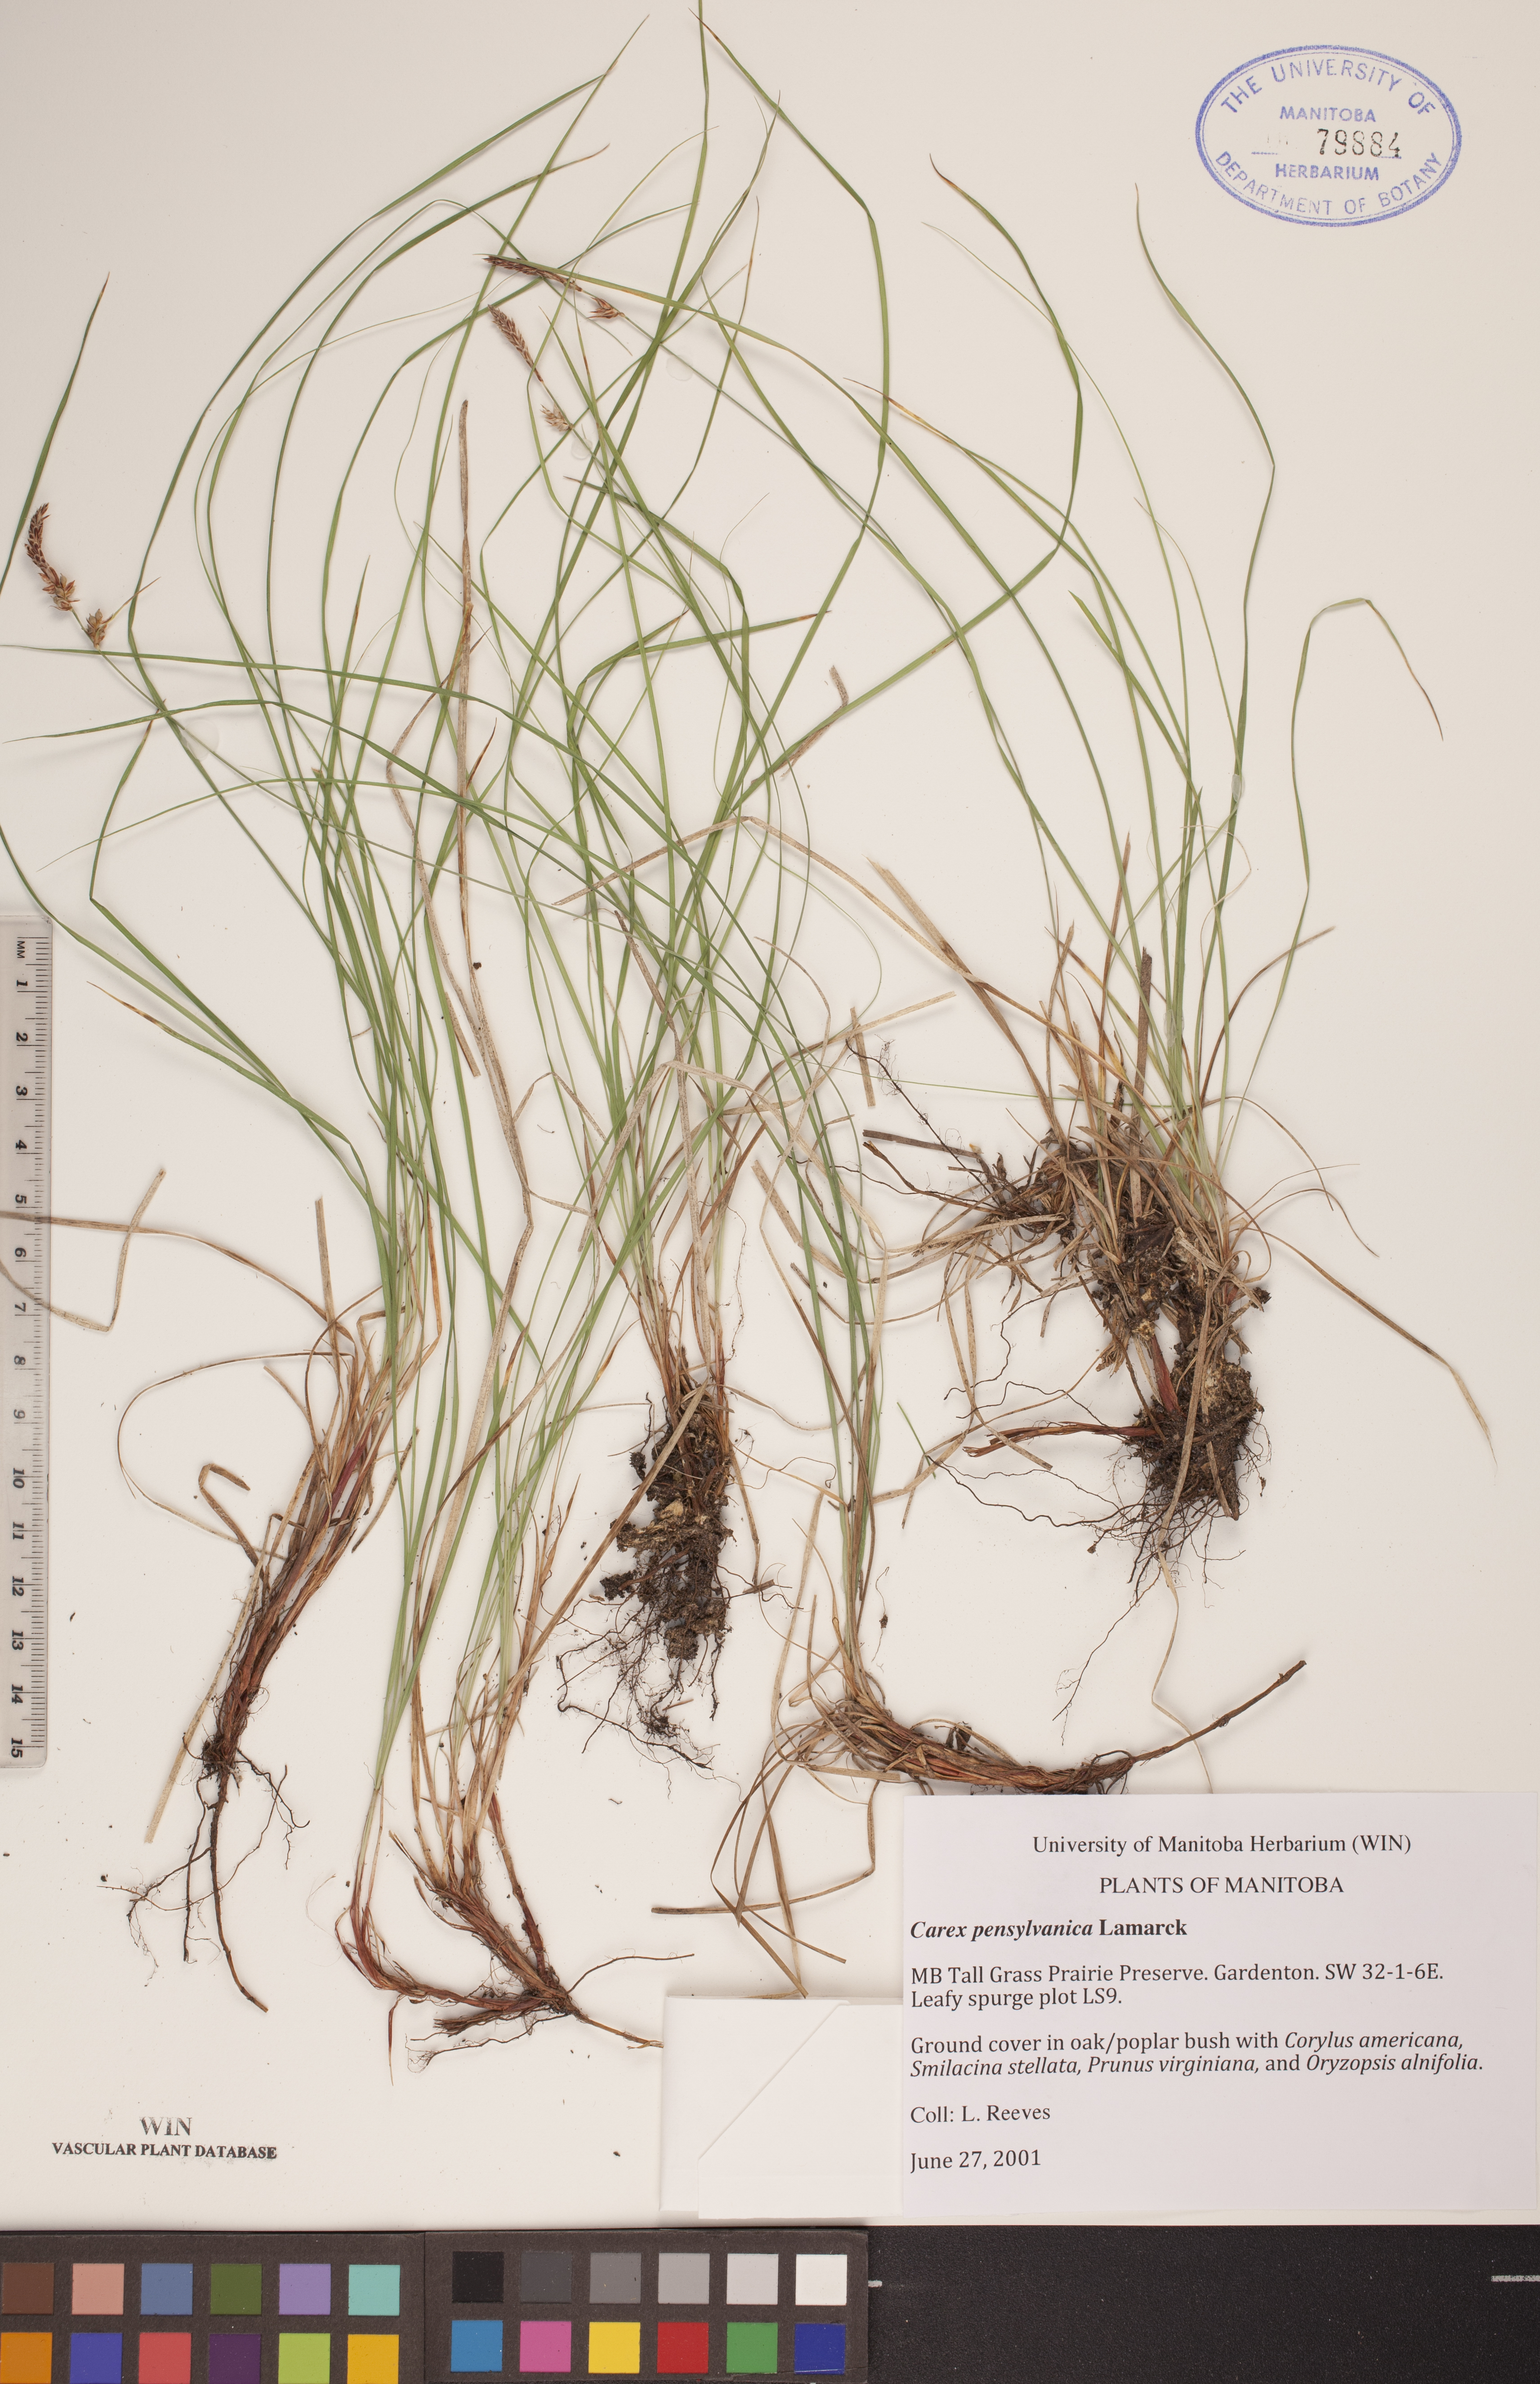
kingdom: Plantae
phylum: Tracheophyta
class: Liliopsida
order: Poales
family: Cyperaceae
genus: Carex
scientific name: Carex pensylvanica
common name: Common oak sedge
